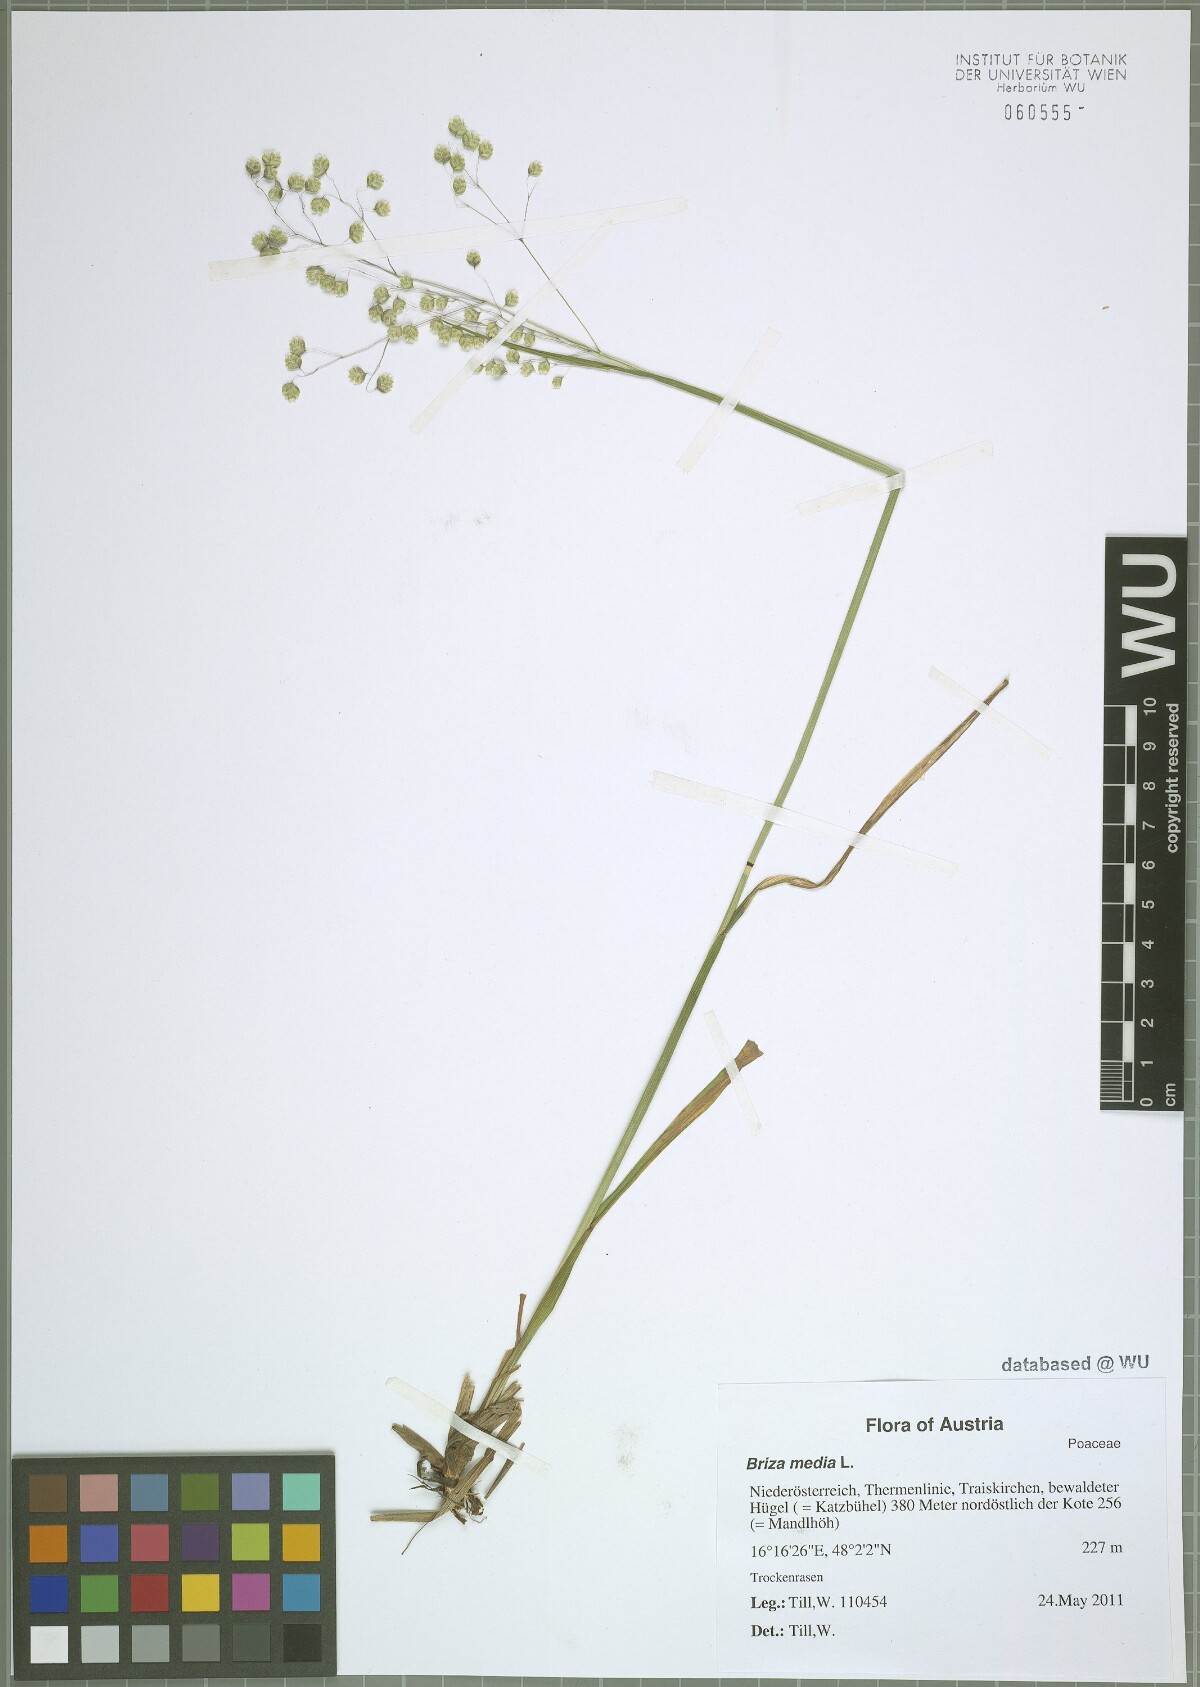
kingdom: Plantae
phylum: Tracheophyta
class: Liliopsida
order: Poales
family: Poaceae
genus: Briza
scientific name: Briza media
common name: Quaking grass
